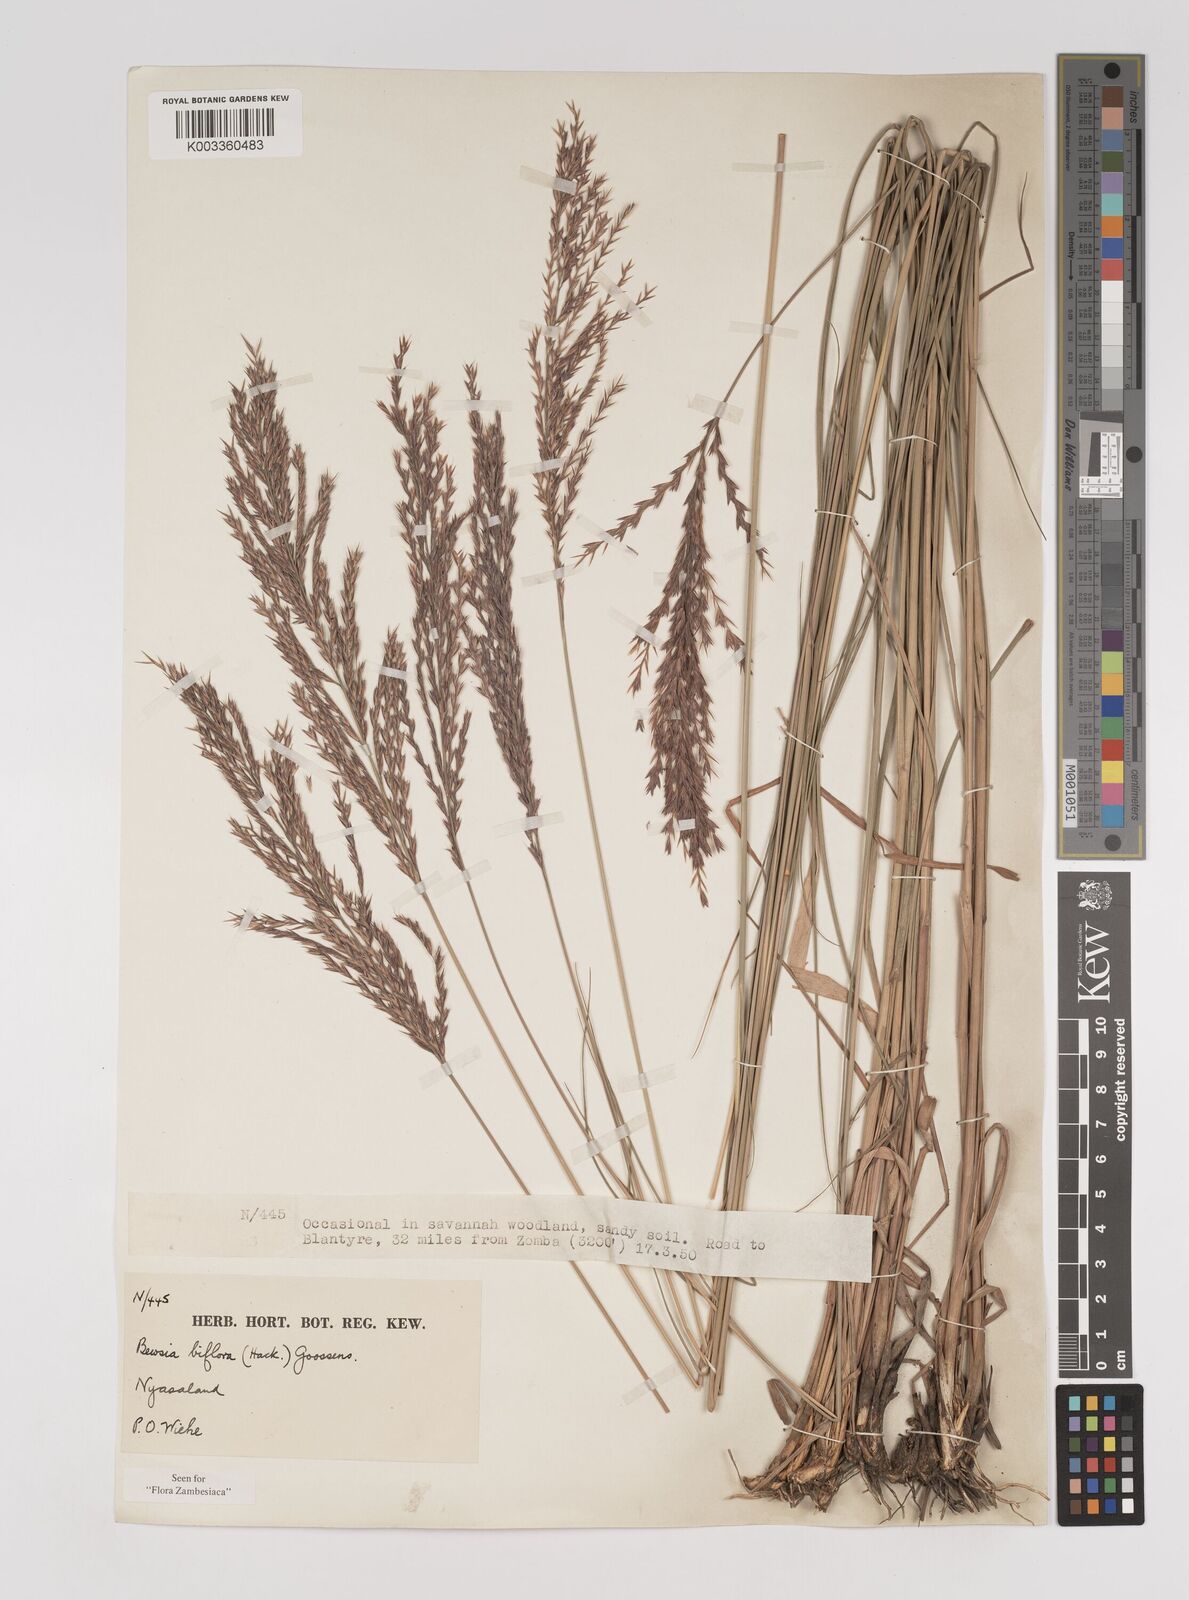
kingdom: Plantae
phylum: Tracheophyta
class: Liliopsida
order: Poales
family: Poaceae
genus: Bewsia
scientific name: Bewsia biflora
